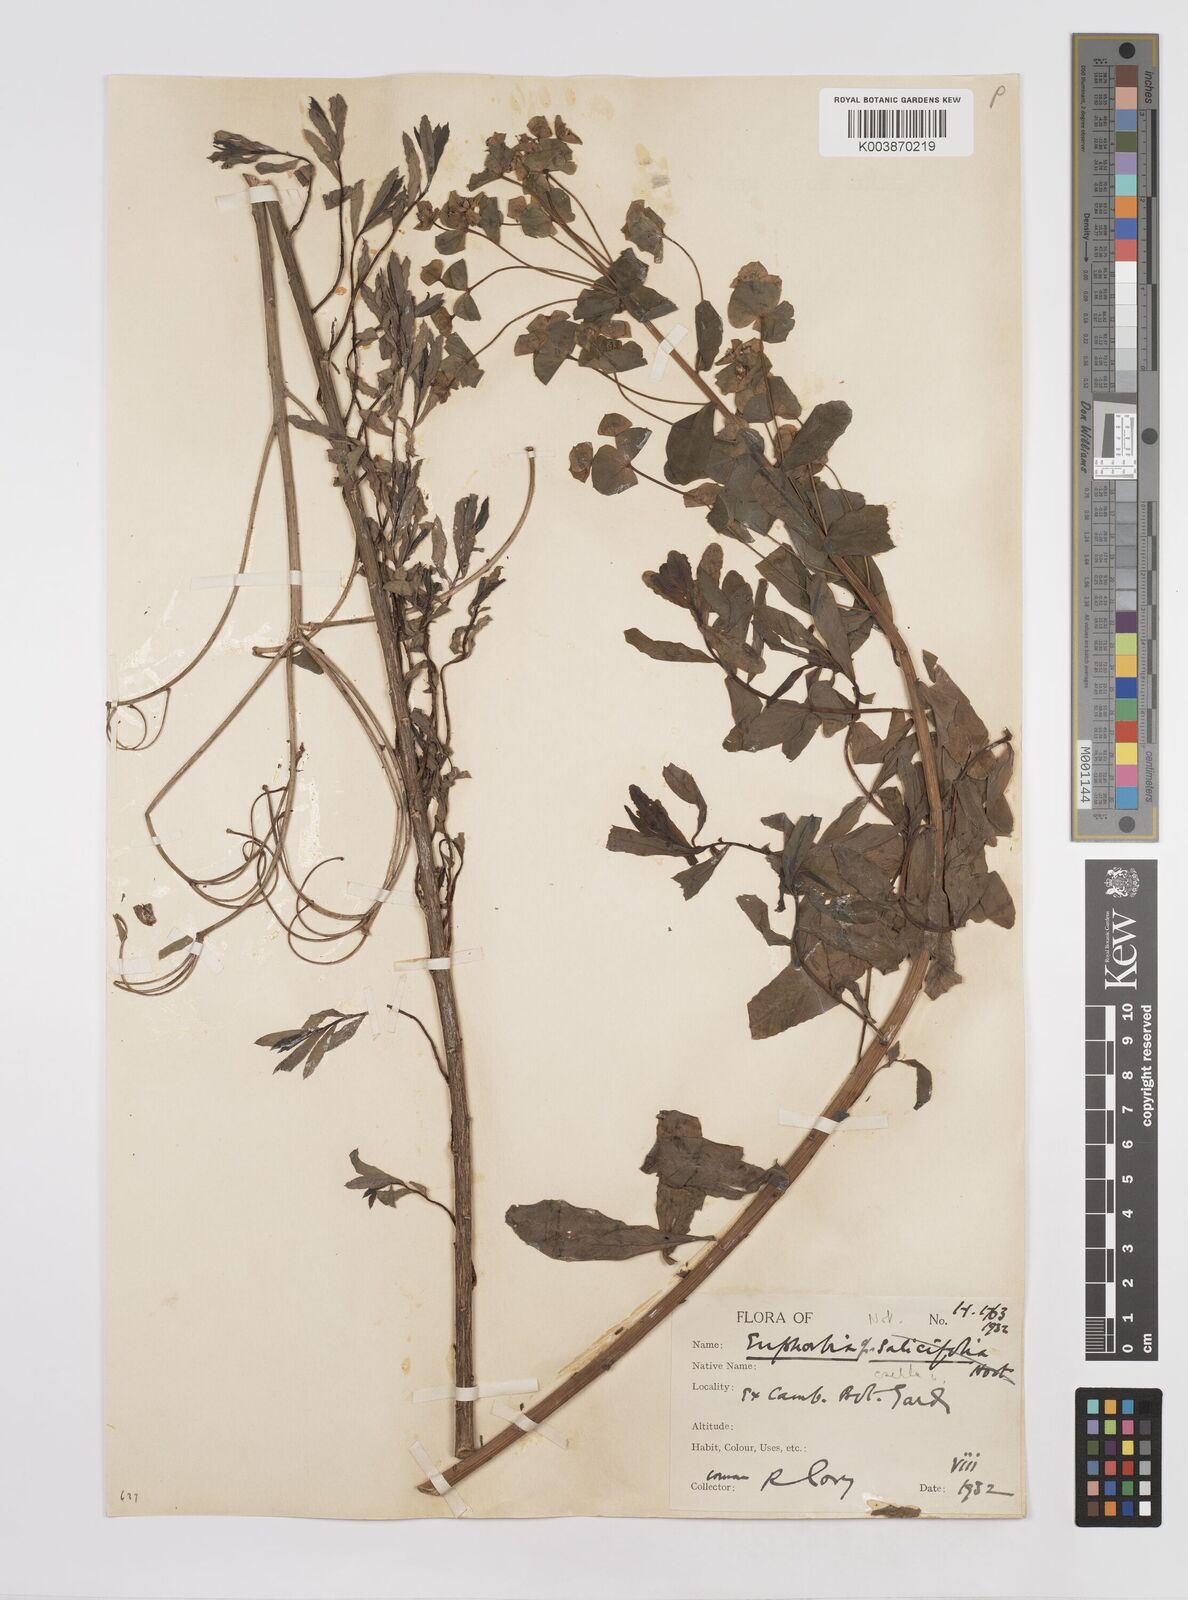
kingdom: Plantae
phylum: Tracheophyta
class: Magnoliopsida
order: Malpighiales
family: Euphorbiaceae
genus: Euphorbia
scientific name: Euphorbia esula
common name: Leafy spurge
